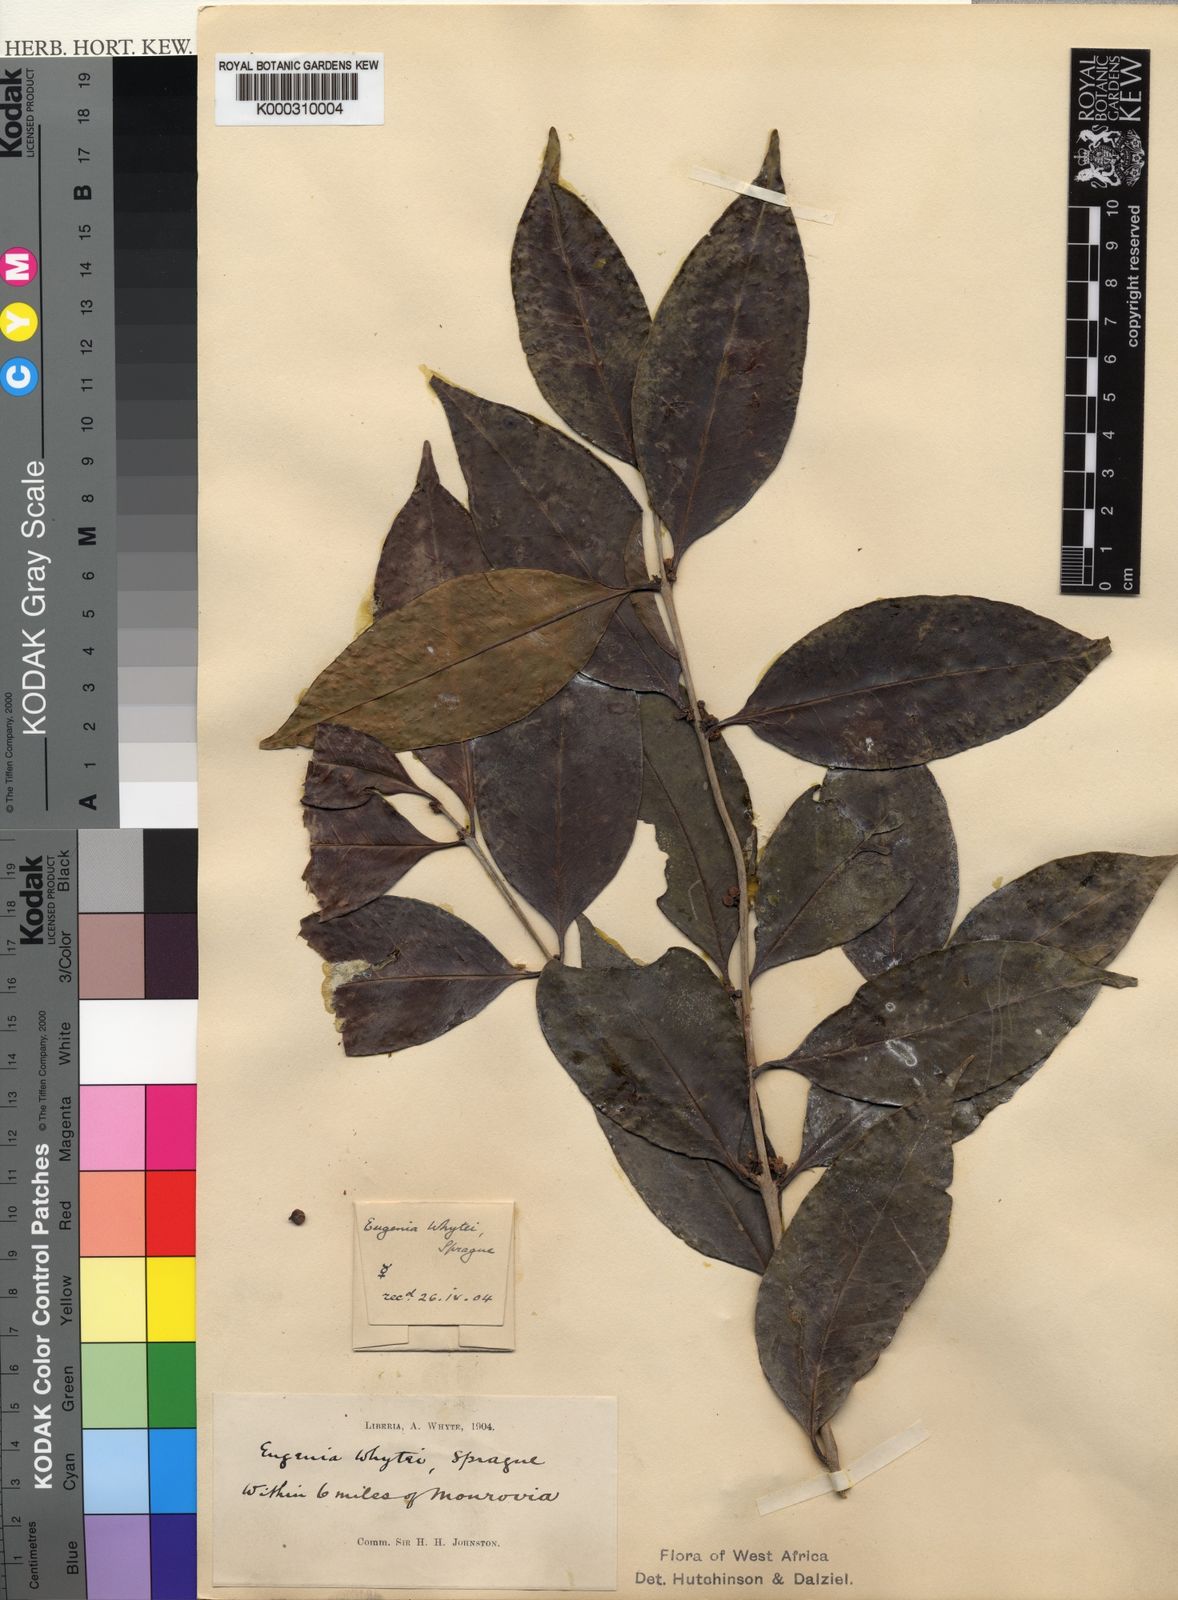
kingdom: Plantae
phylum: Tracheophyta
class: Magnoliopsida
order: Myrtales
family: Myrtaceae
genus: Eugenia
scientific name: Eugenia whytei
